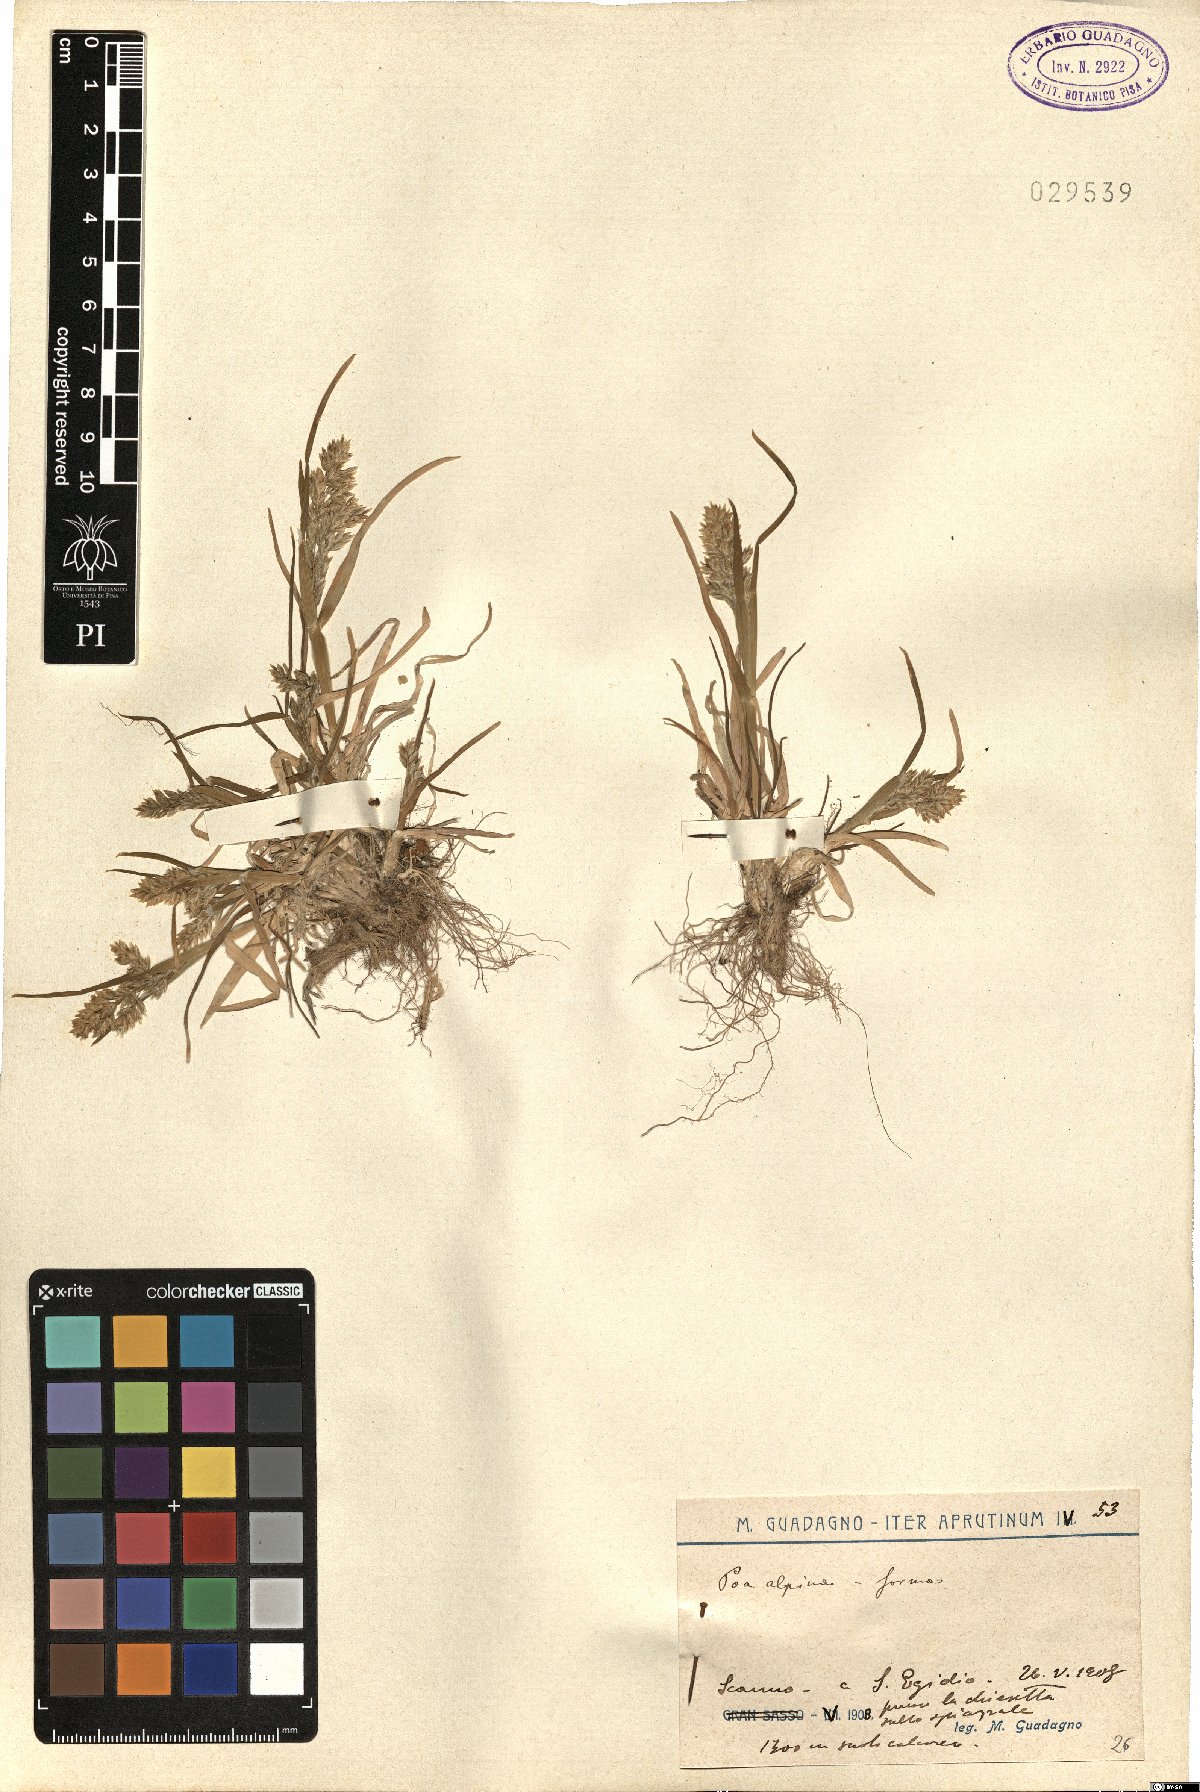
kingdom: Plantae
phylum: Tracheophyta
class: Liliopsida
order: Poales
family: Poaceae
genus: Poa
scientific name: Poa alpina
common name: Alpine bluegrass
